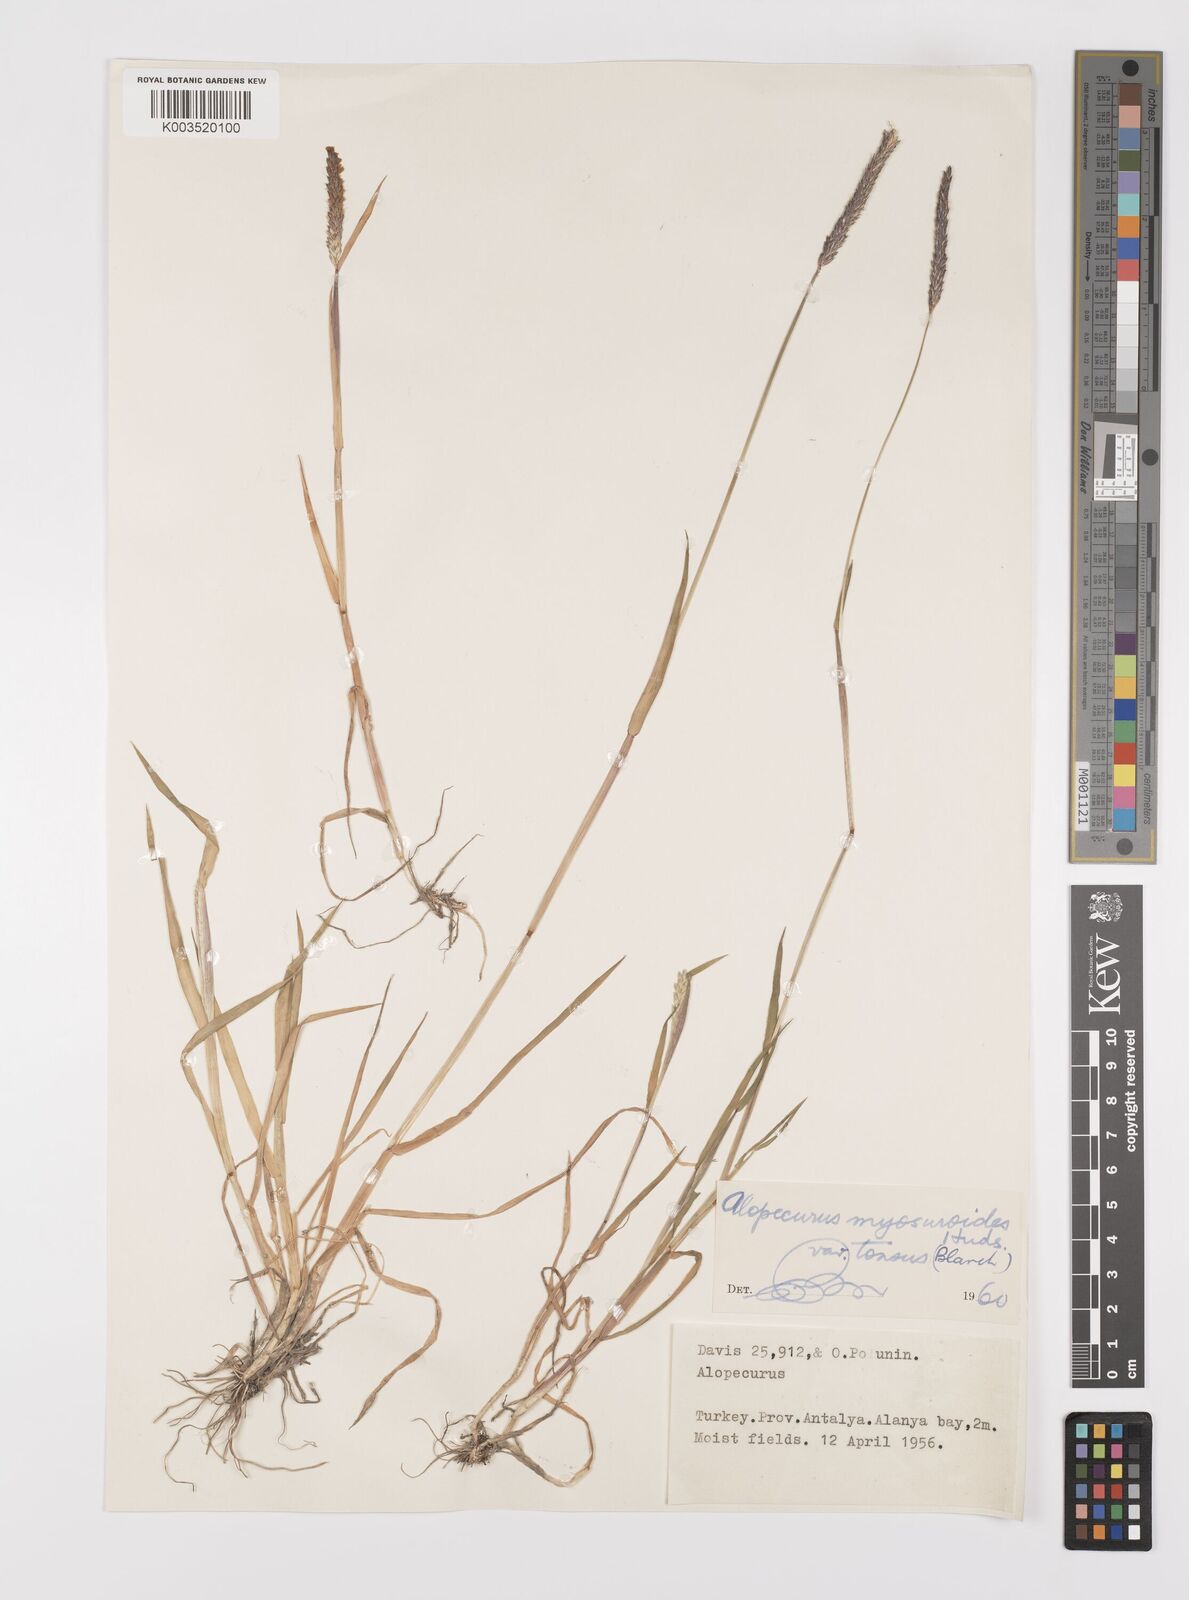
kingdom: Plantae
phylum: Tracheophyta
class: Liliopsida
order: Poales
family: Poaceae
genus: Alopecurus
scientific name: Alopecurus myosuroides
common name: Black-grass
